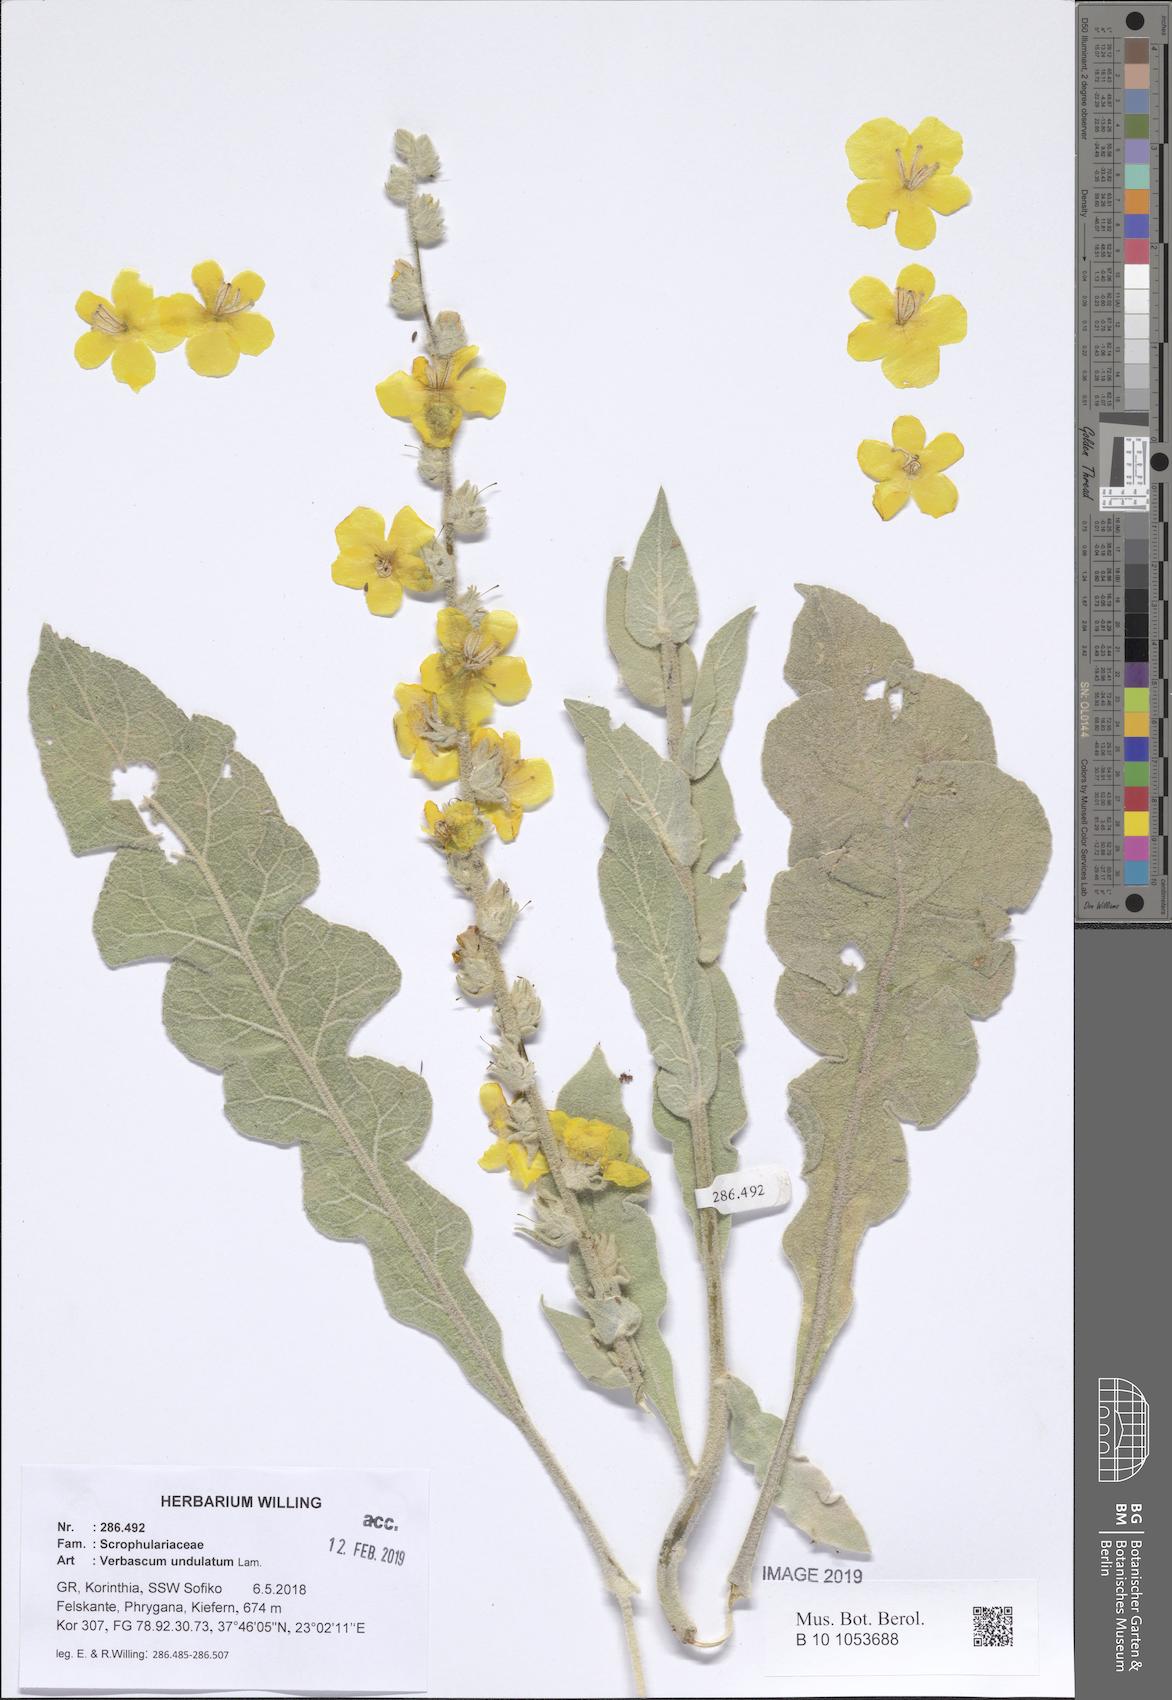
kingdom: Plantae
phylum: Tracheophyta
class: Magnoliopsida
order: Lamiales
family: Scrophulariaceae
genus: Verbascum
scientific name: Verbascum undulatum
